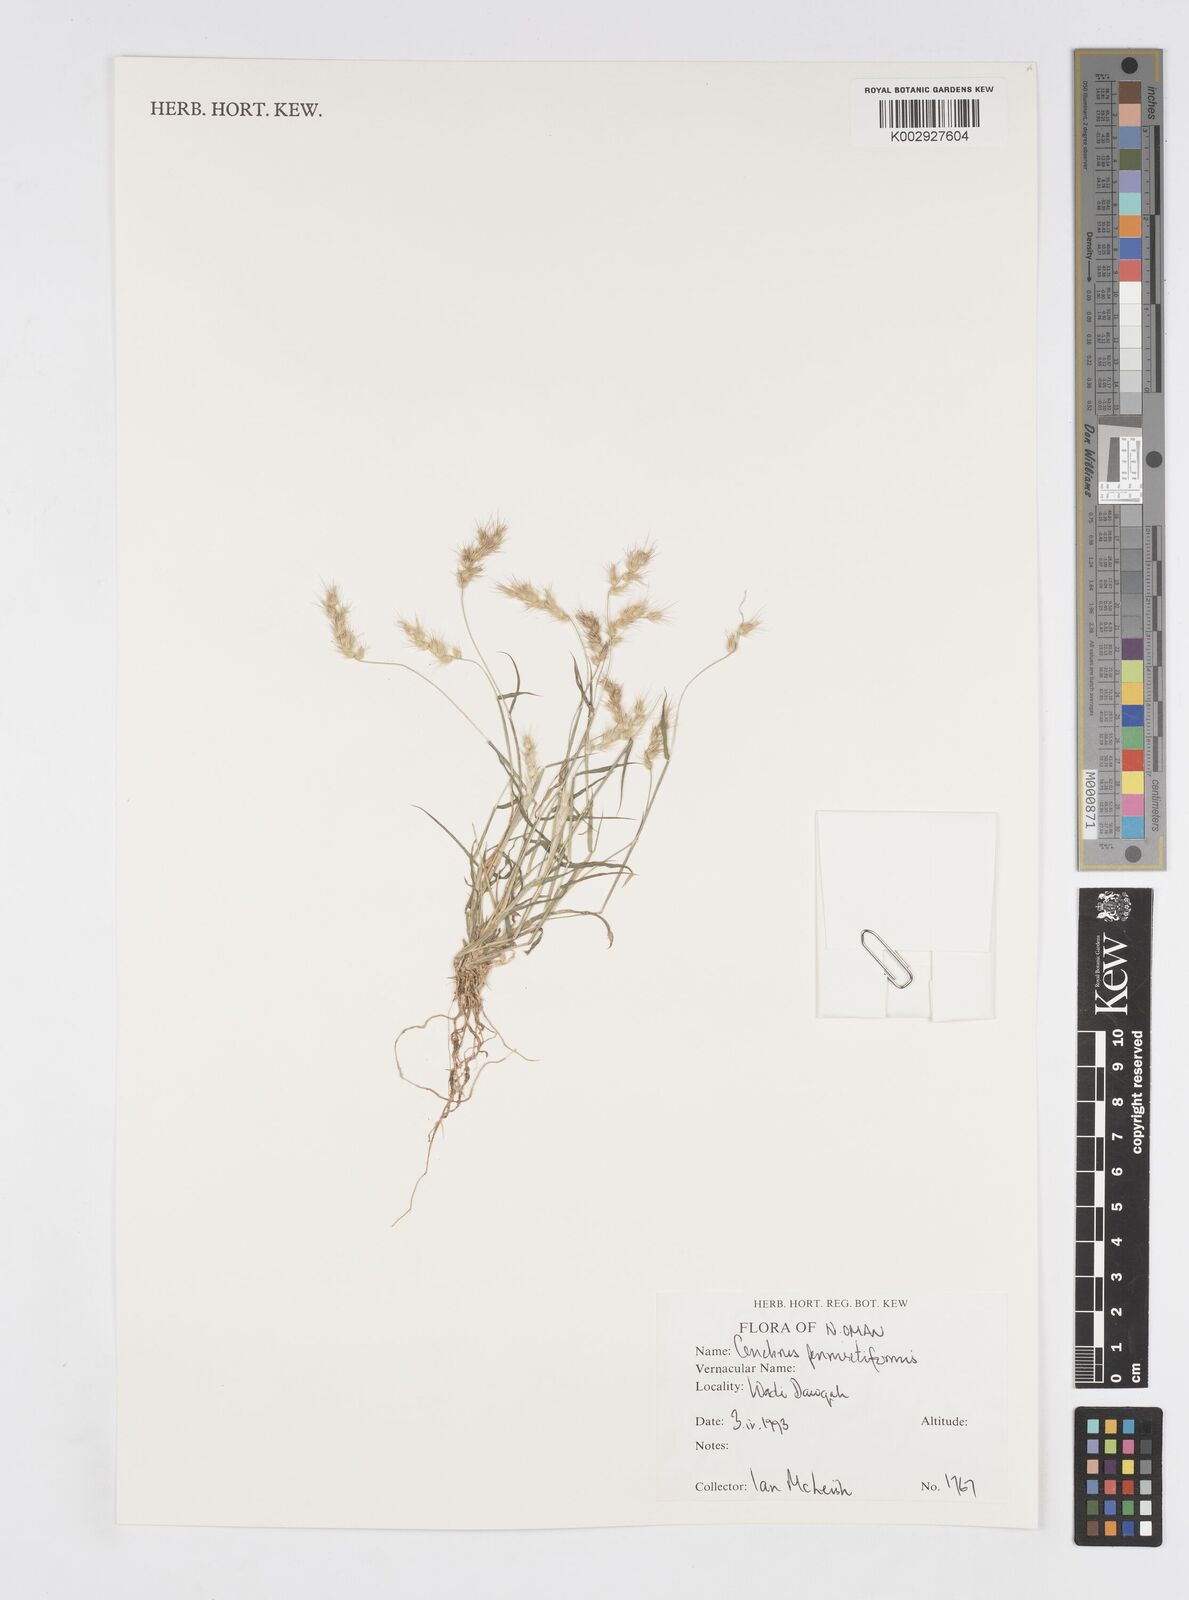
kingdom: Plantae
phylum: Tracheophyta
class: Liliopsida
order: Poales
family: Poaceae
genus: Cenchrus
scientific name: Cenchrus pennisetiformis
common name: Cloncurry
